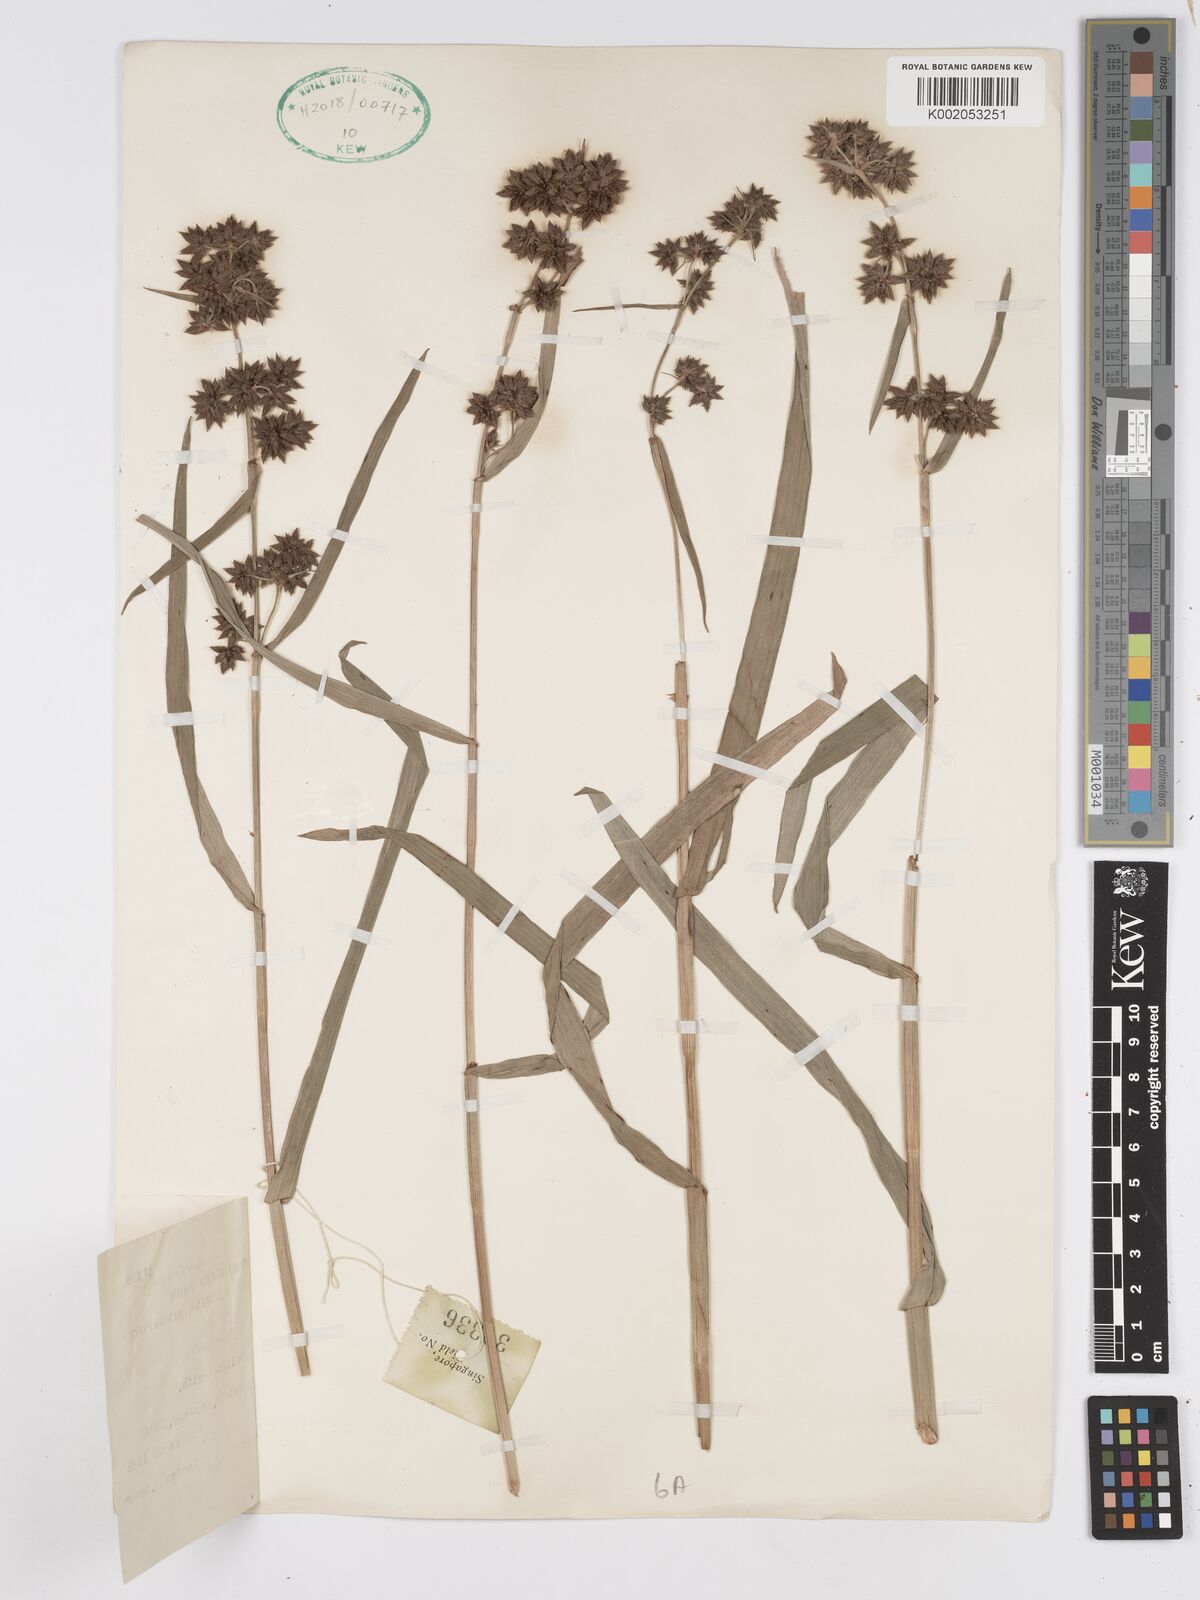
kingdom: Plantae
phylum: Tracheophyta
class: Liliopsida
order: Poales
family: Cyperaceae
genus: Fuirena
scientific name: Fuirena ciliaris
